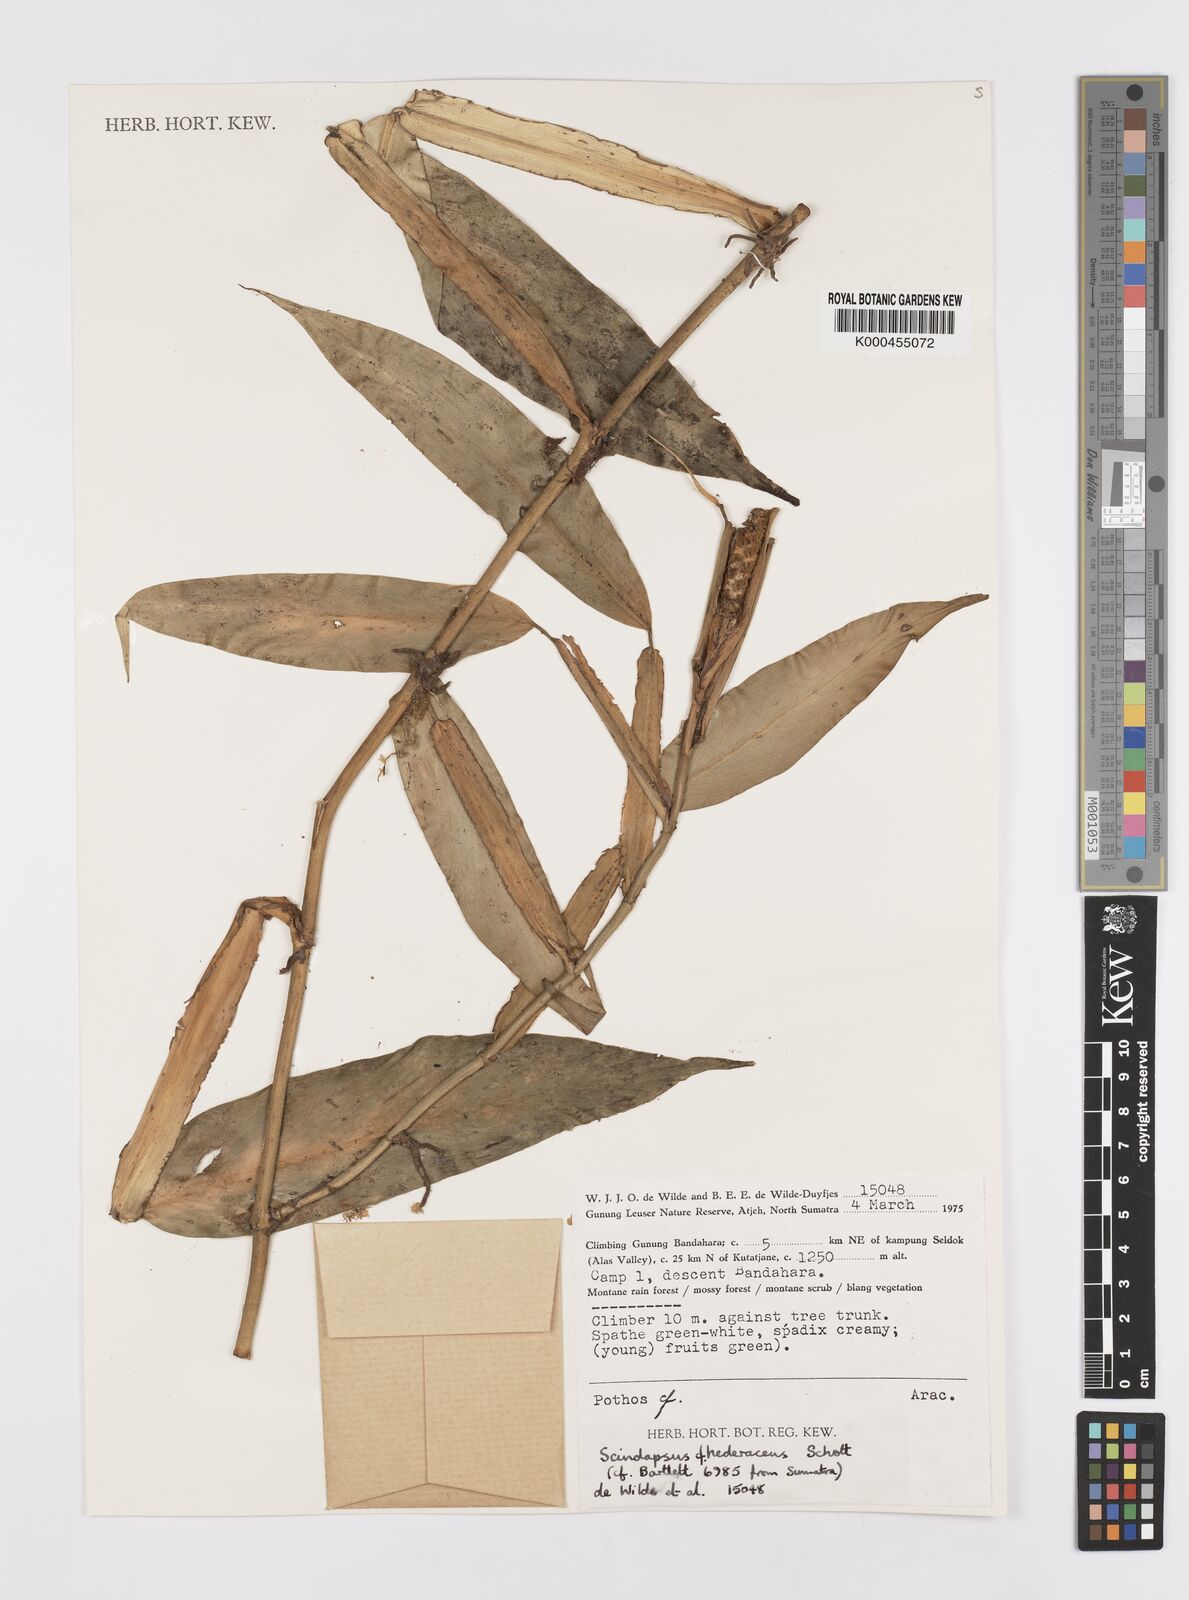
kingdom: Plantae
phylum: Tracheophyta
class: Liliopsida
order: Alismatales
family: Araceae
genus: Scindapsus
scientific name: Scindapsus hederaceus
